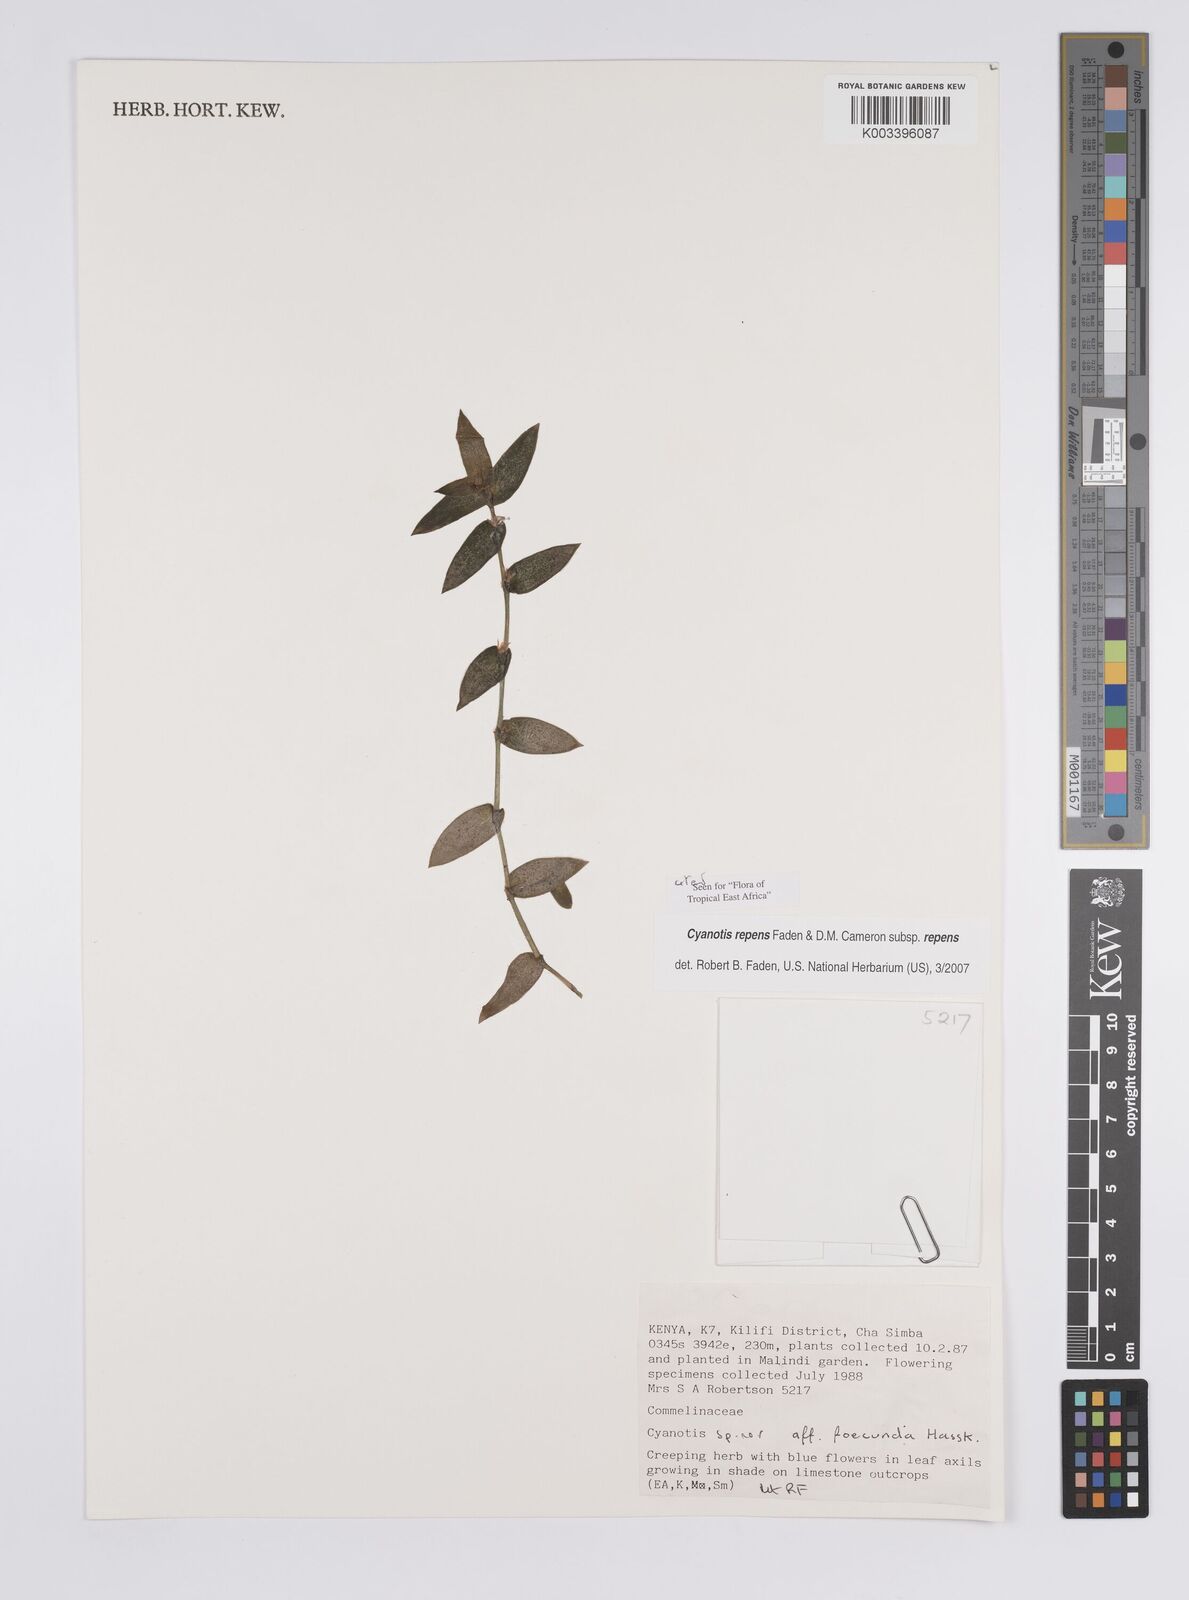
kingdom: Plantae
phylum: Tracheophyta
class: Liliopsida
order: Commelinales
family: Commelinaceae
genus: Cyanotis
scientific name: Cyanotis repens
